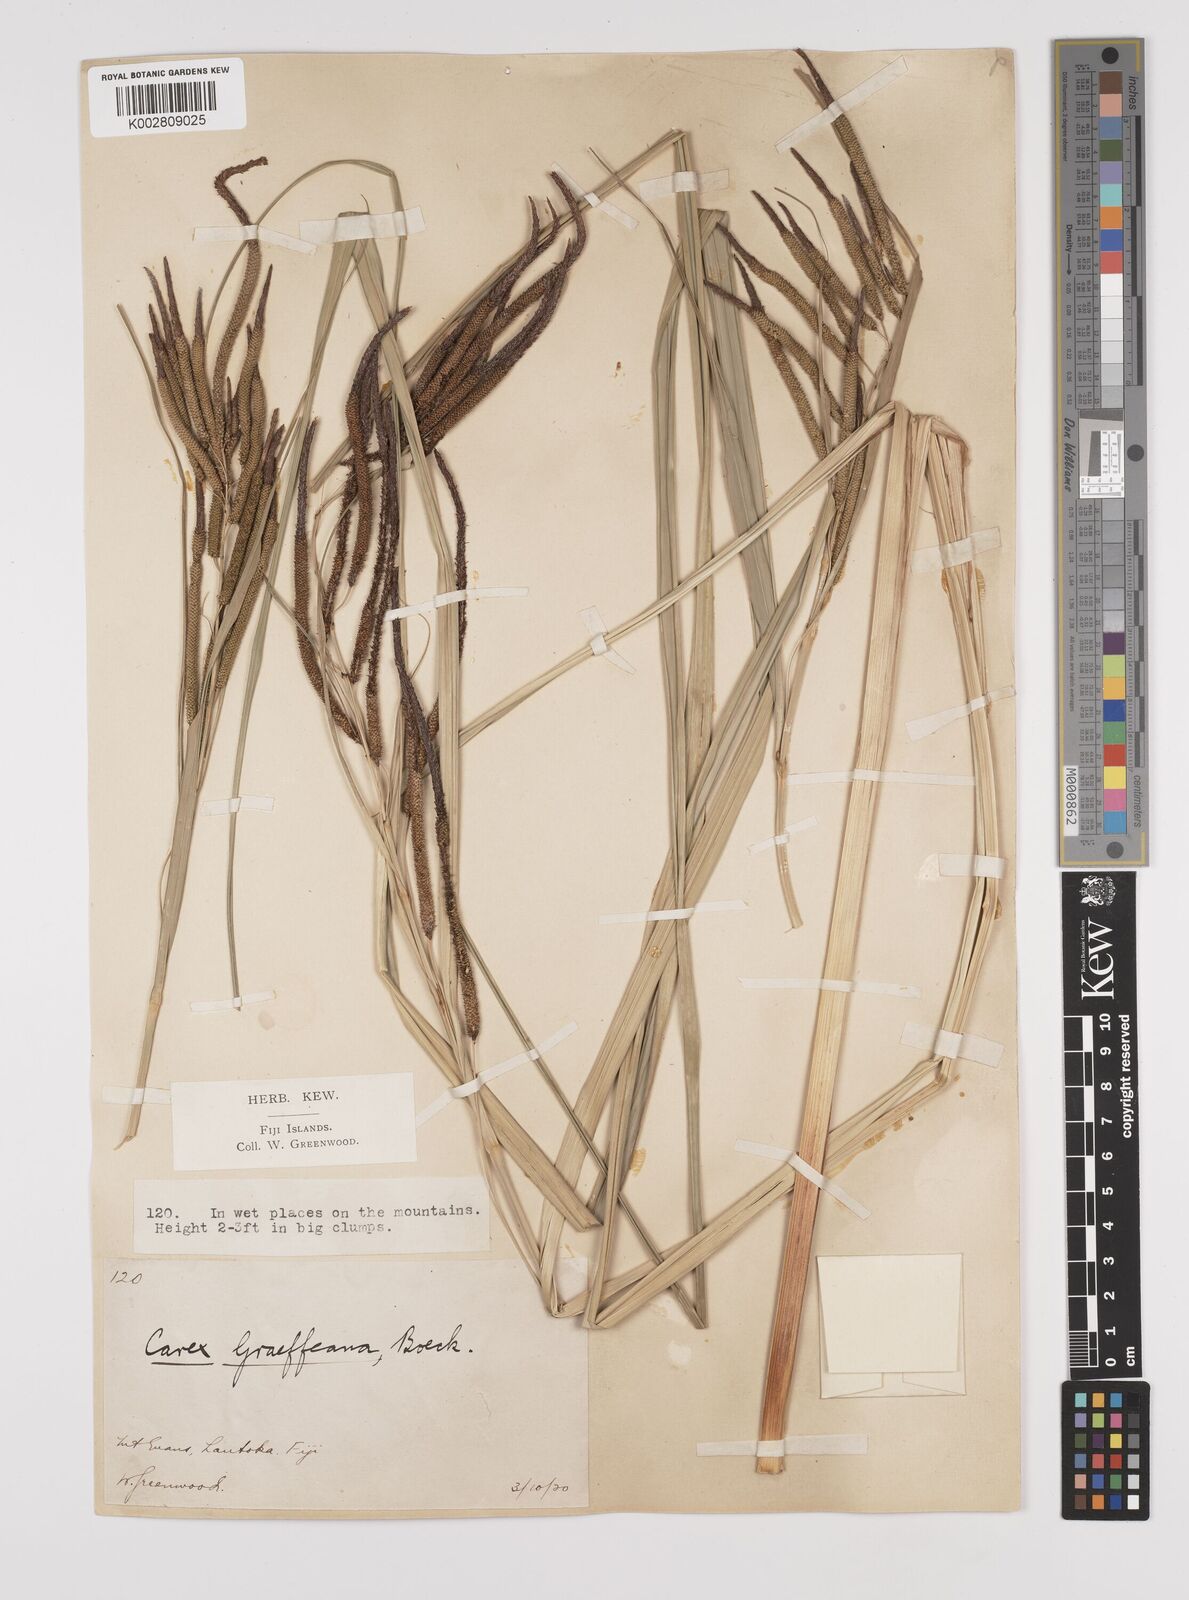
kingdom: Plantae
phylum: Tracheophyta
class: Liliopsida
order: Poales
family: Cyperaceae
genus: Carex
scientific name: Carex graeffeana
